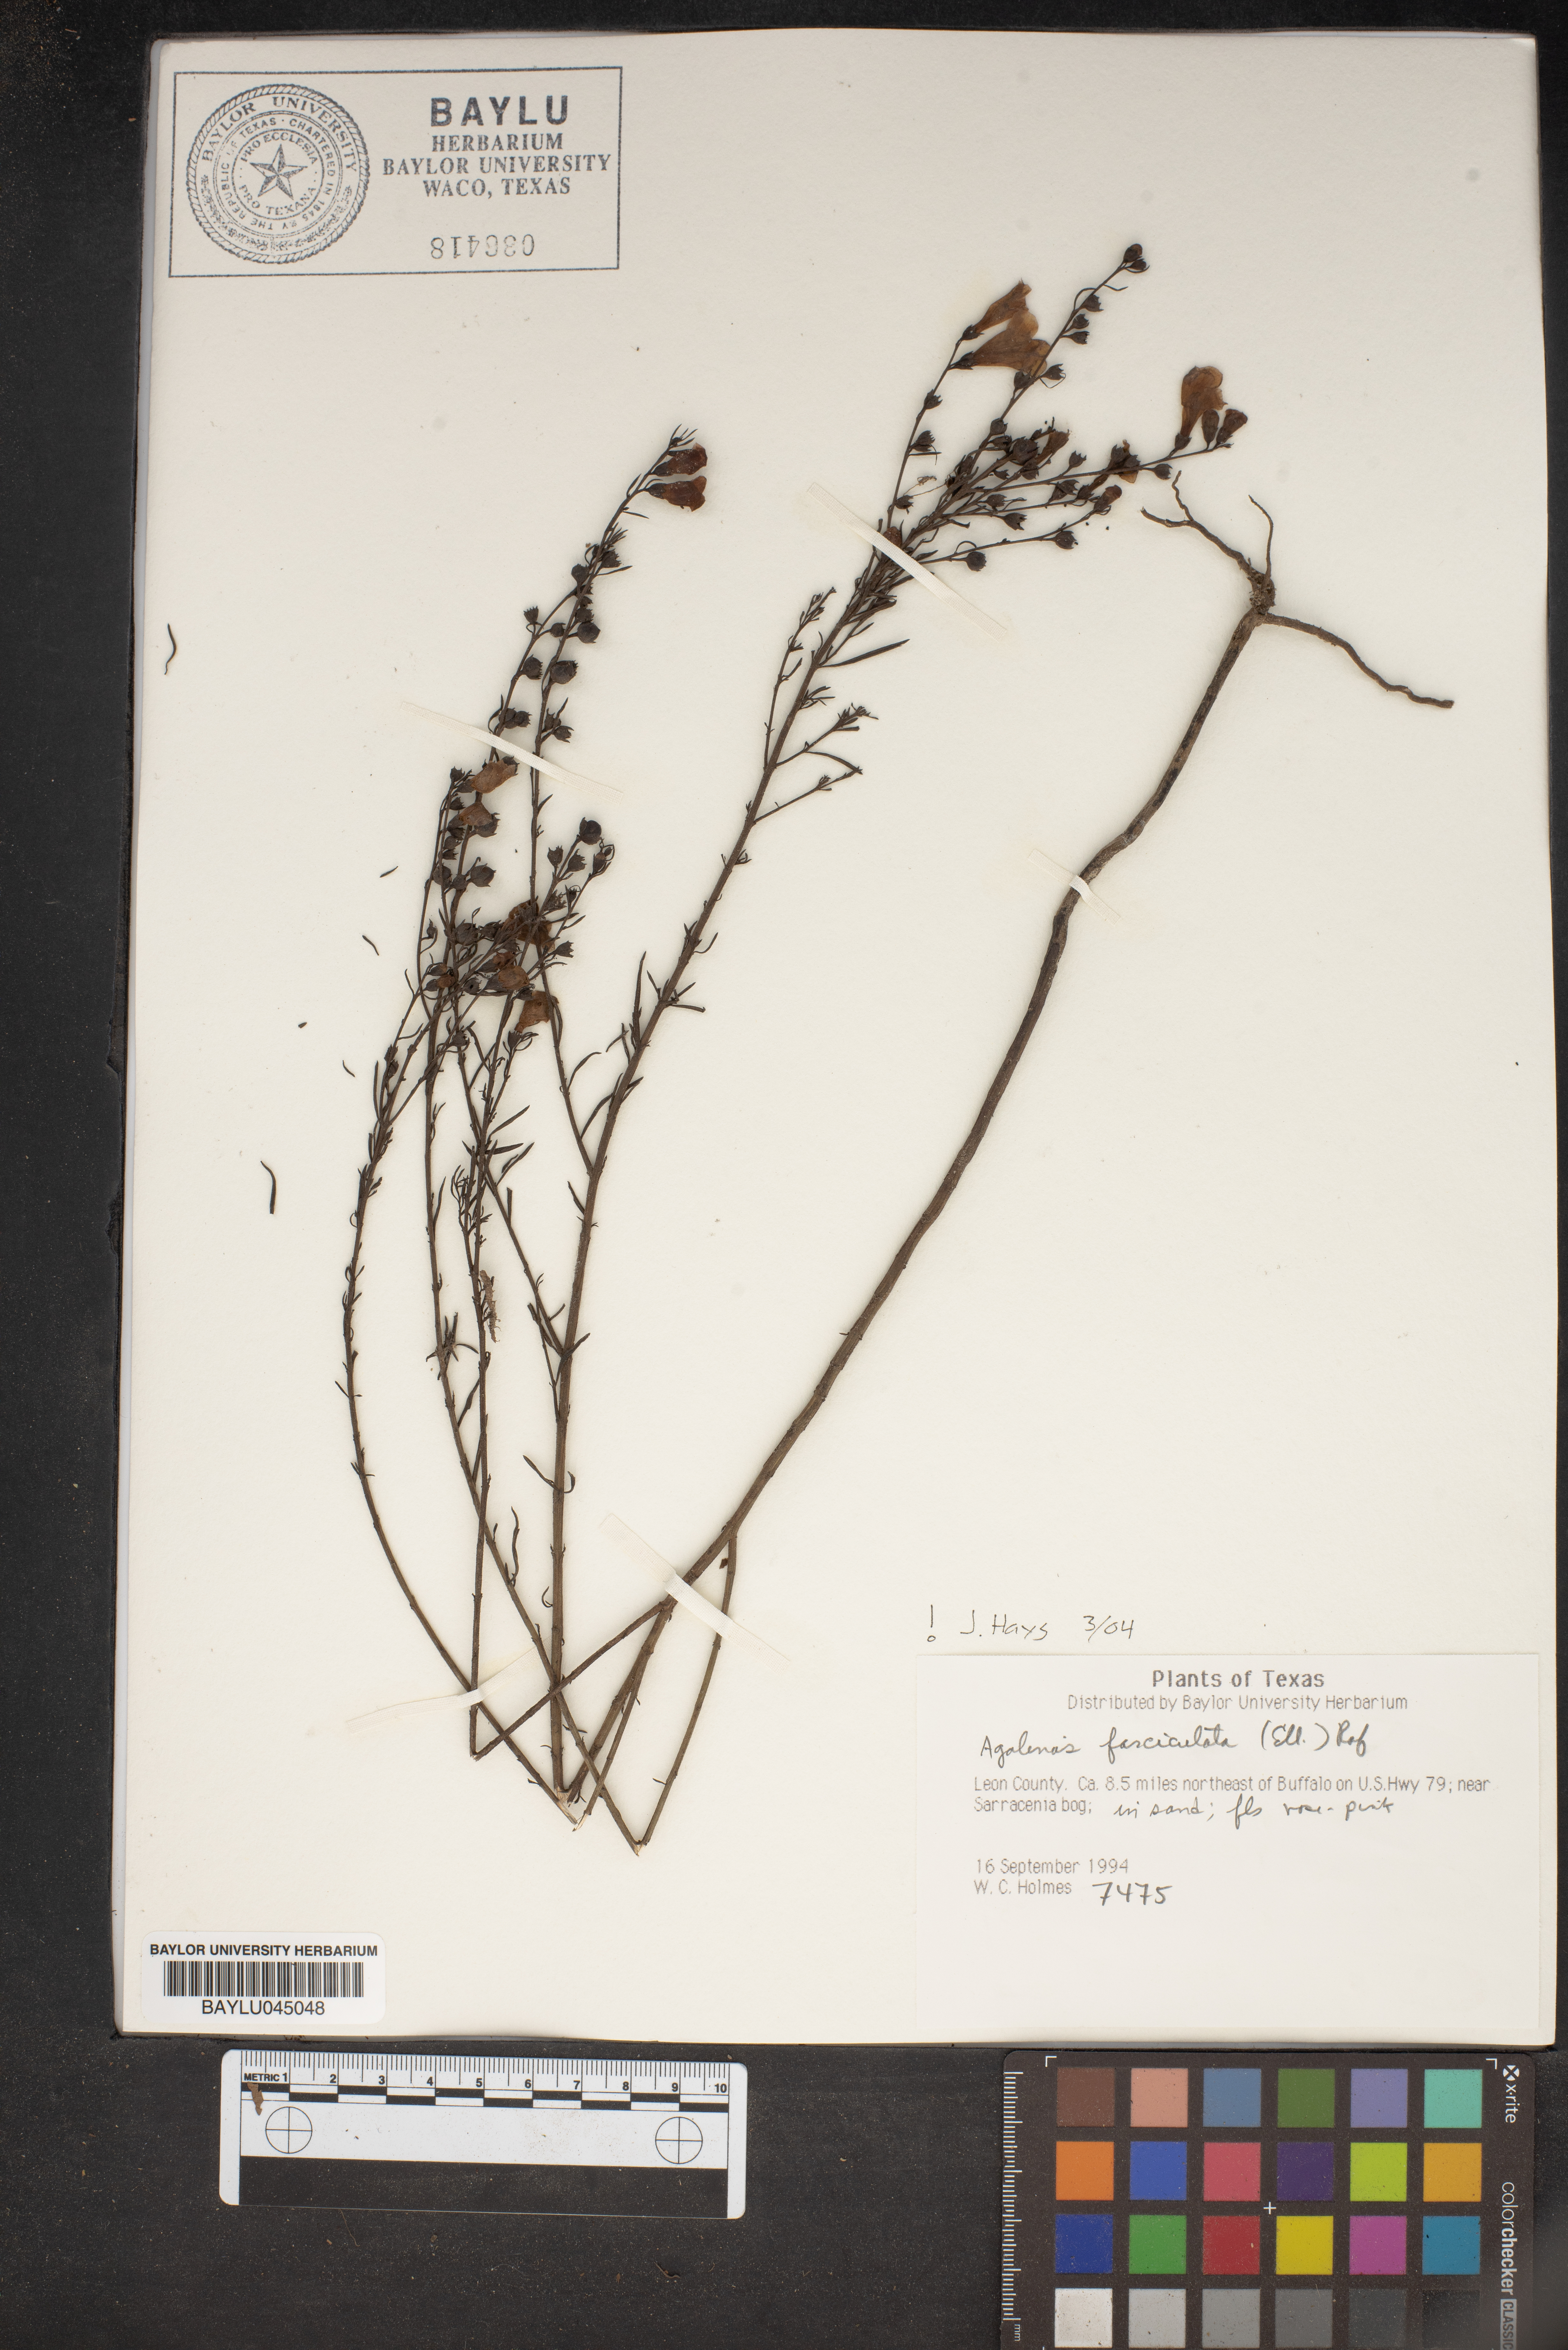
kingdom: Plantae
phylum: Tracheophyta
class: Magnoliopsida
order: Lamiales
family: Orobanchaceae
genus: Agalinis
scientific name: Agalinis fasciculata
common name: Beach false foxglove
